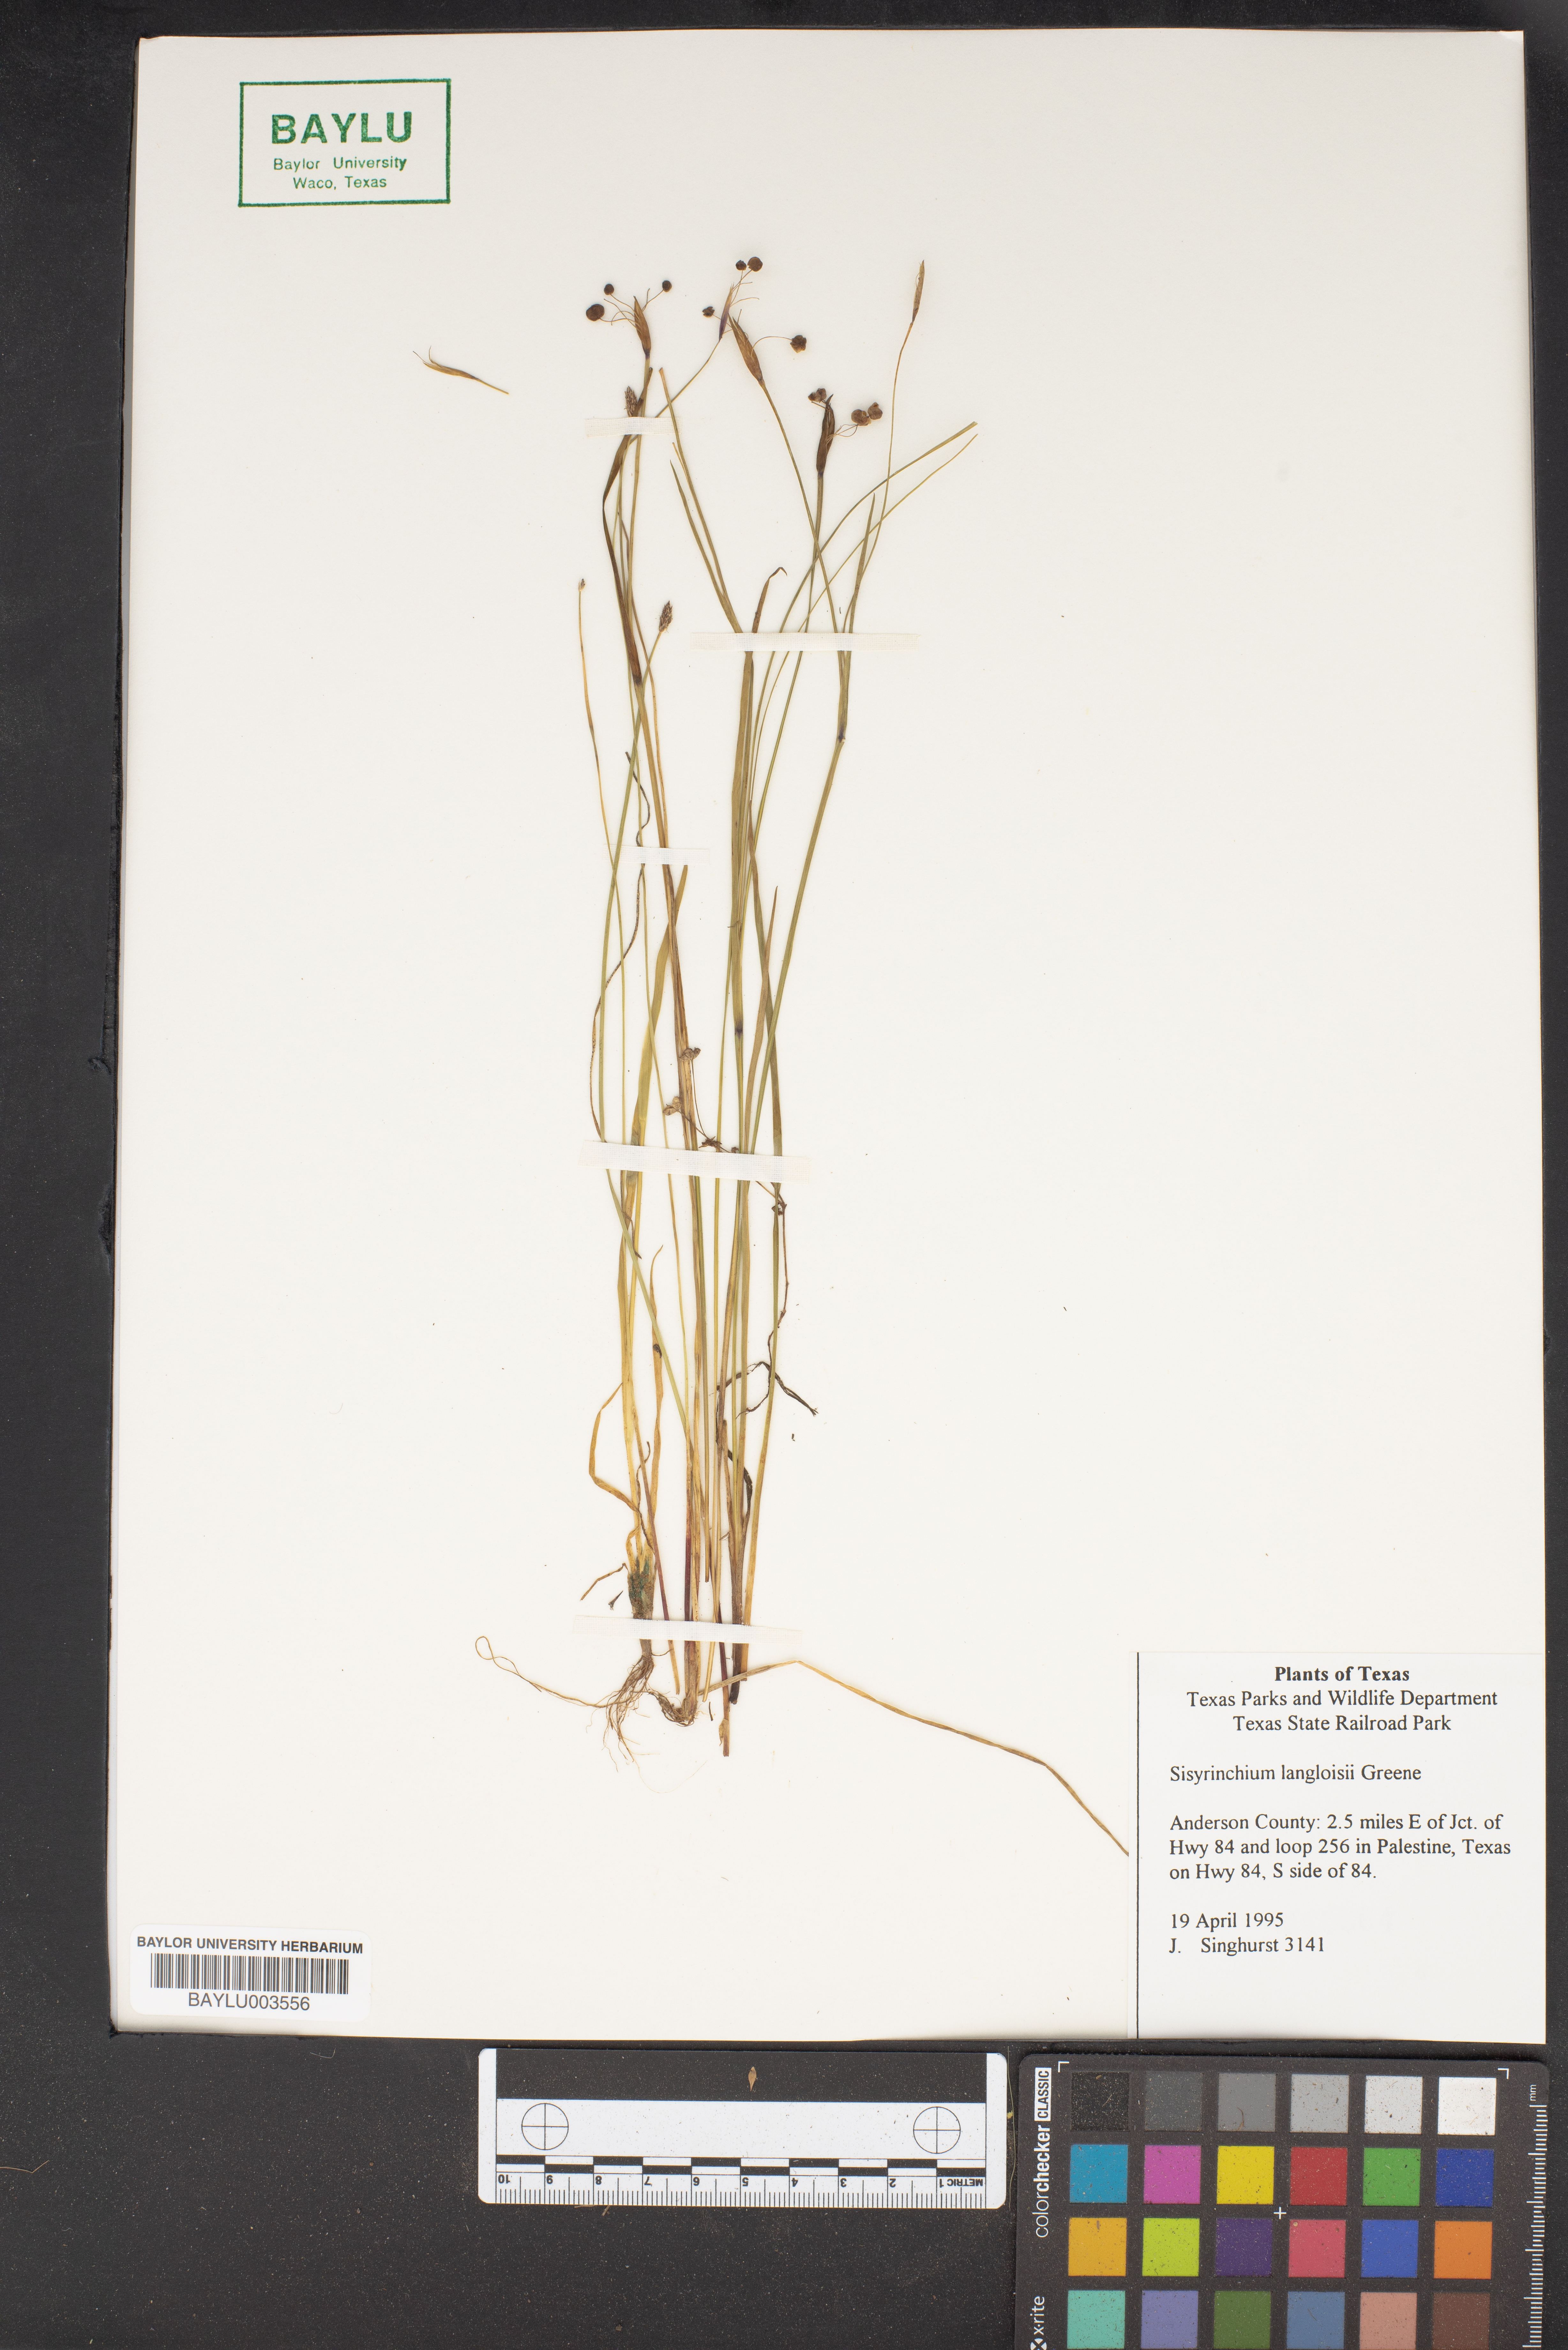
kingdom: Plantae
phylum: Tracheophyta
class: Liliopsida
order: Asparagales
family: Iridaceae
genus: Sisyrinchium
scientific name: Sisyrinchium langloisii
